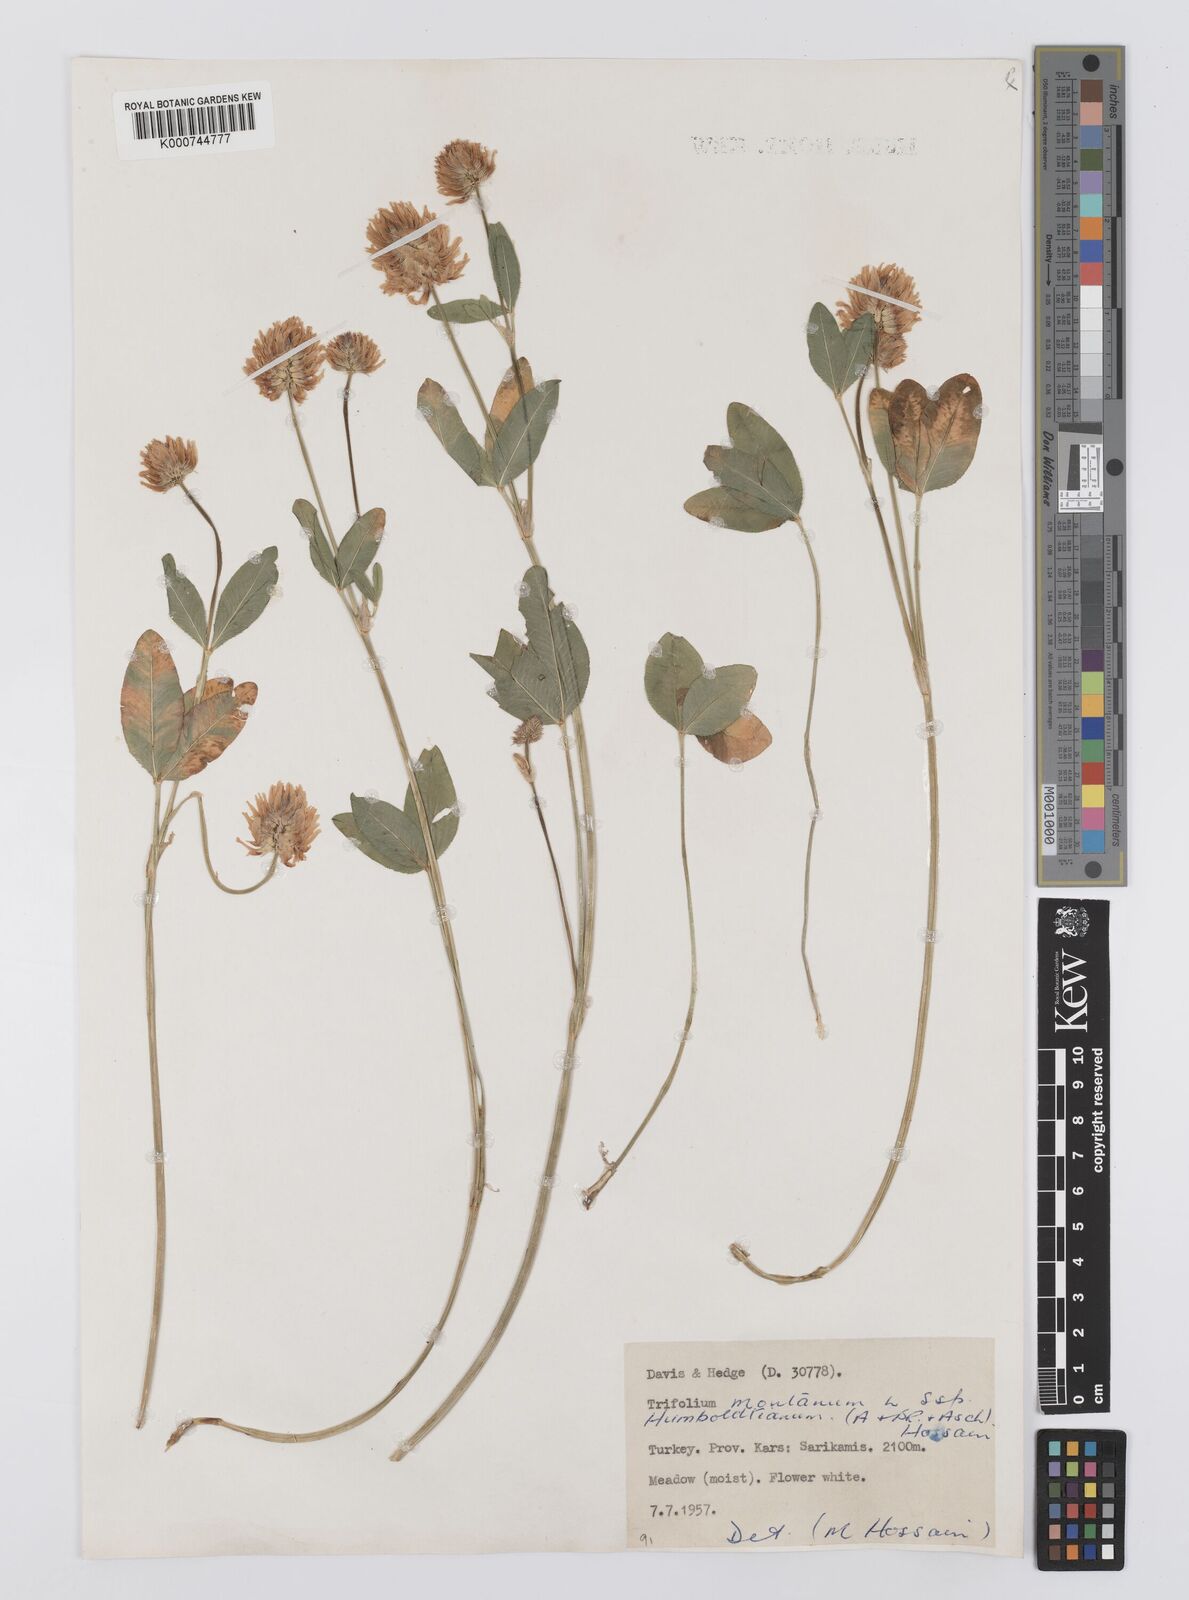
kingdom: Plantae
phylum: Tracheophyta
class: Magnoliopsida
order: Fabales
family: Fabaceae
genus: Trifolium
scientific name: Trifolium
